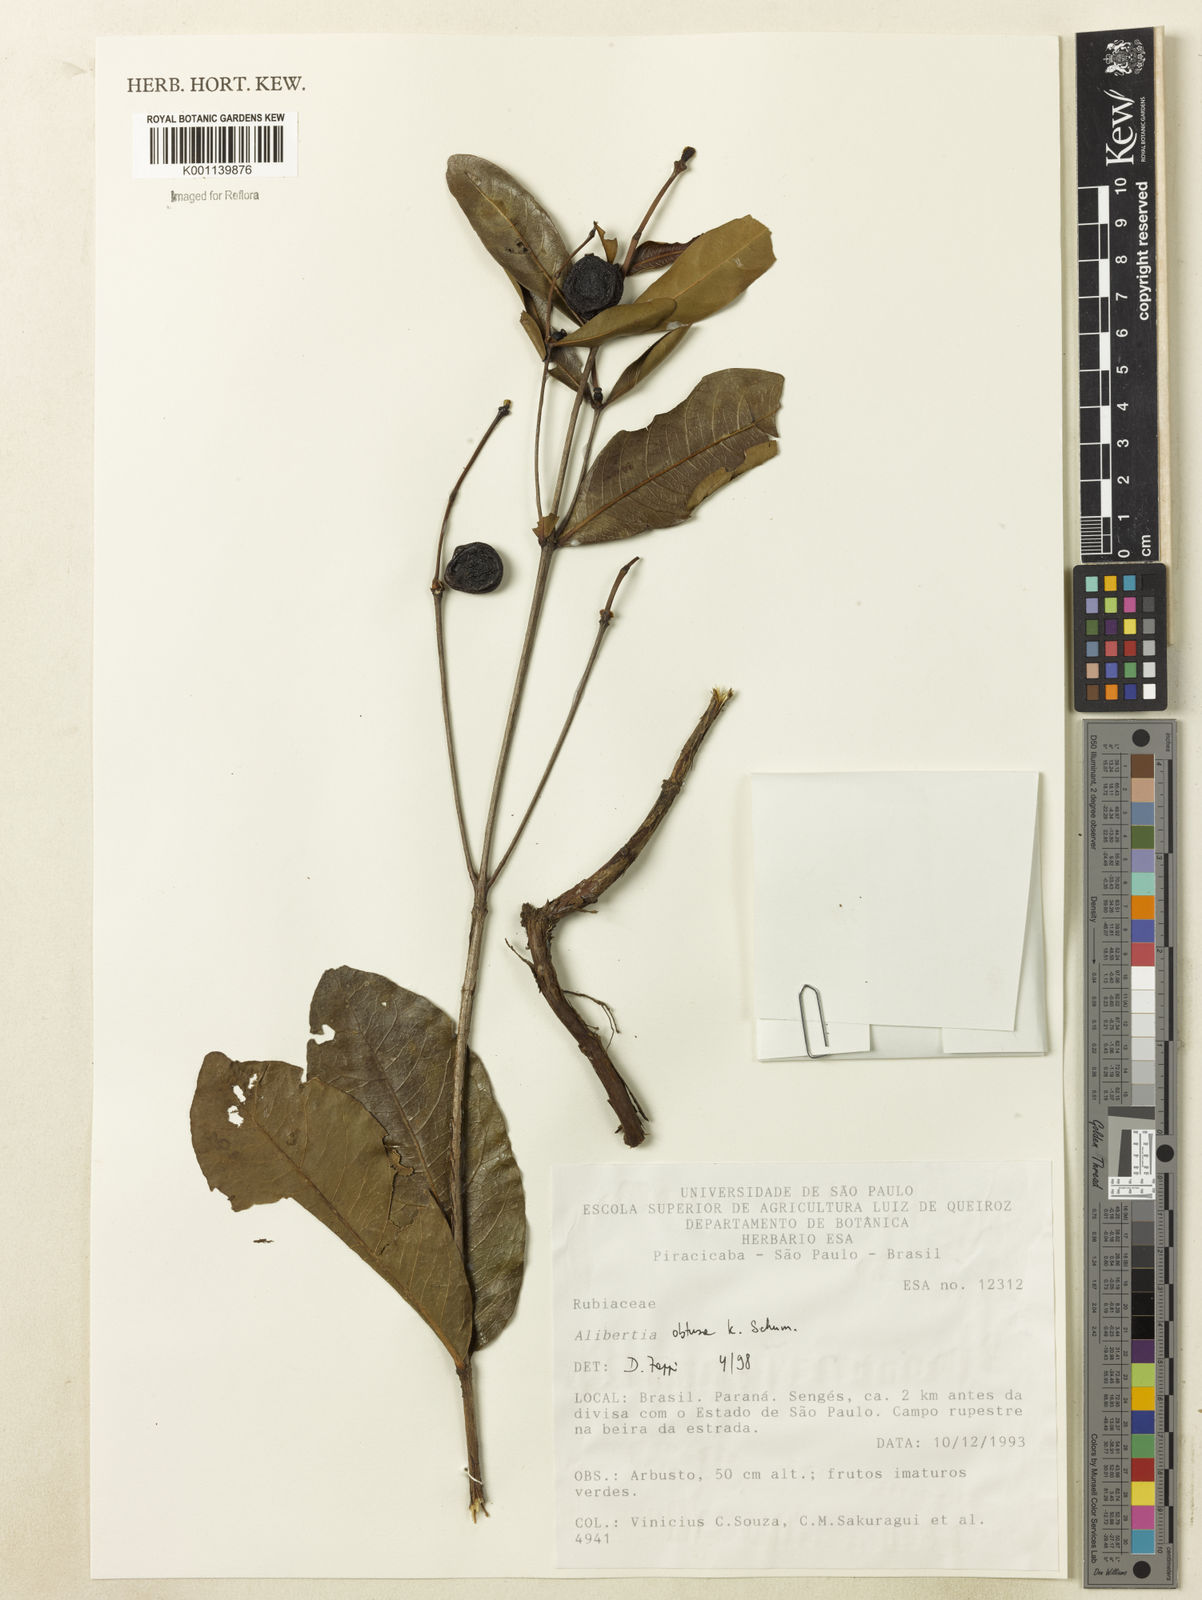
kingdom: Plantae
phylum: Tracheophyta
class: Magnoliopsida
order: Gentianales
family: Rubiaceae
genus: Cordiera
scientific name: Cordiera obtusa
